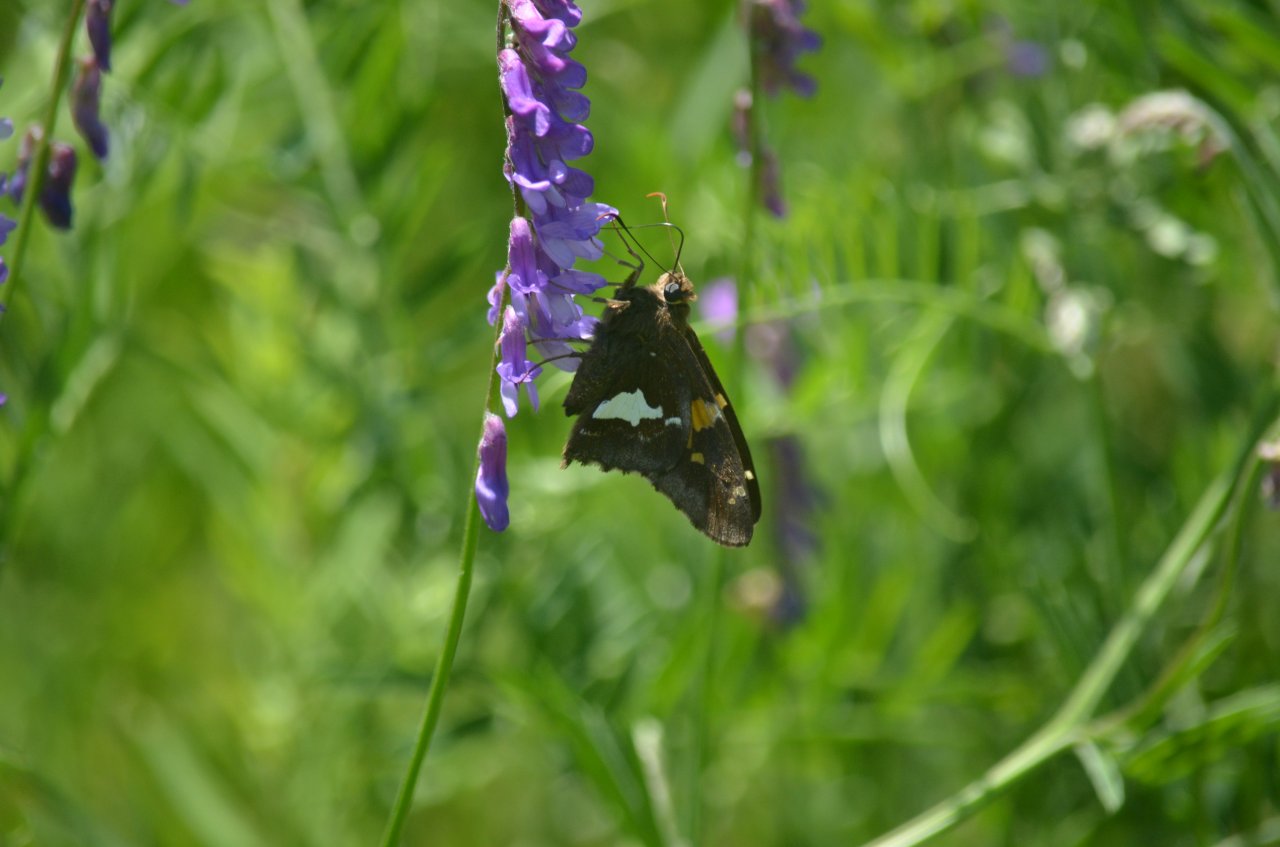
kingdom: Animalia
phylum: Arthropoda
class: Insecta
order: Lepidoptera
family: Hesperiidae
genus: Epargyreus
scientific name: Epargyreus clarus
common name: Silver-spotted Skipper
